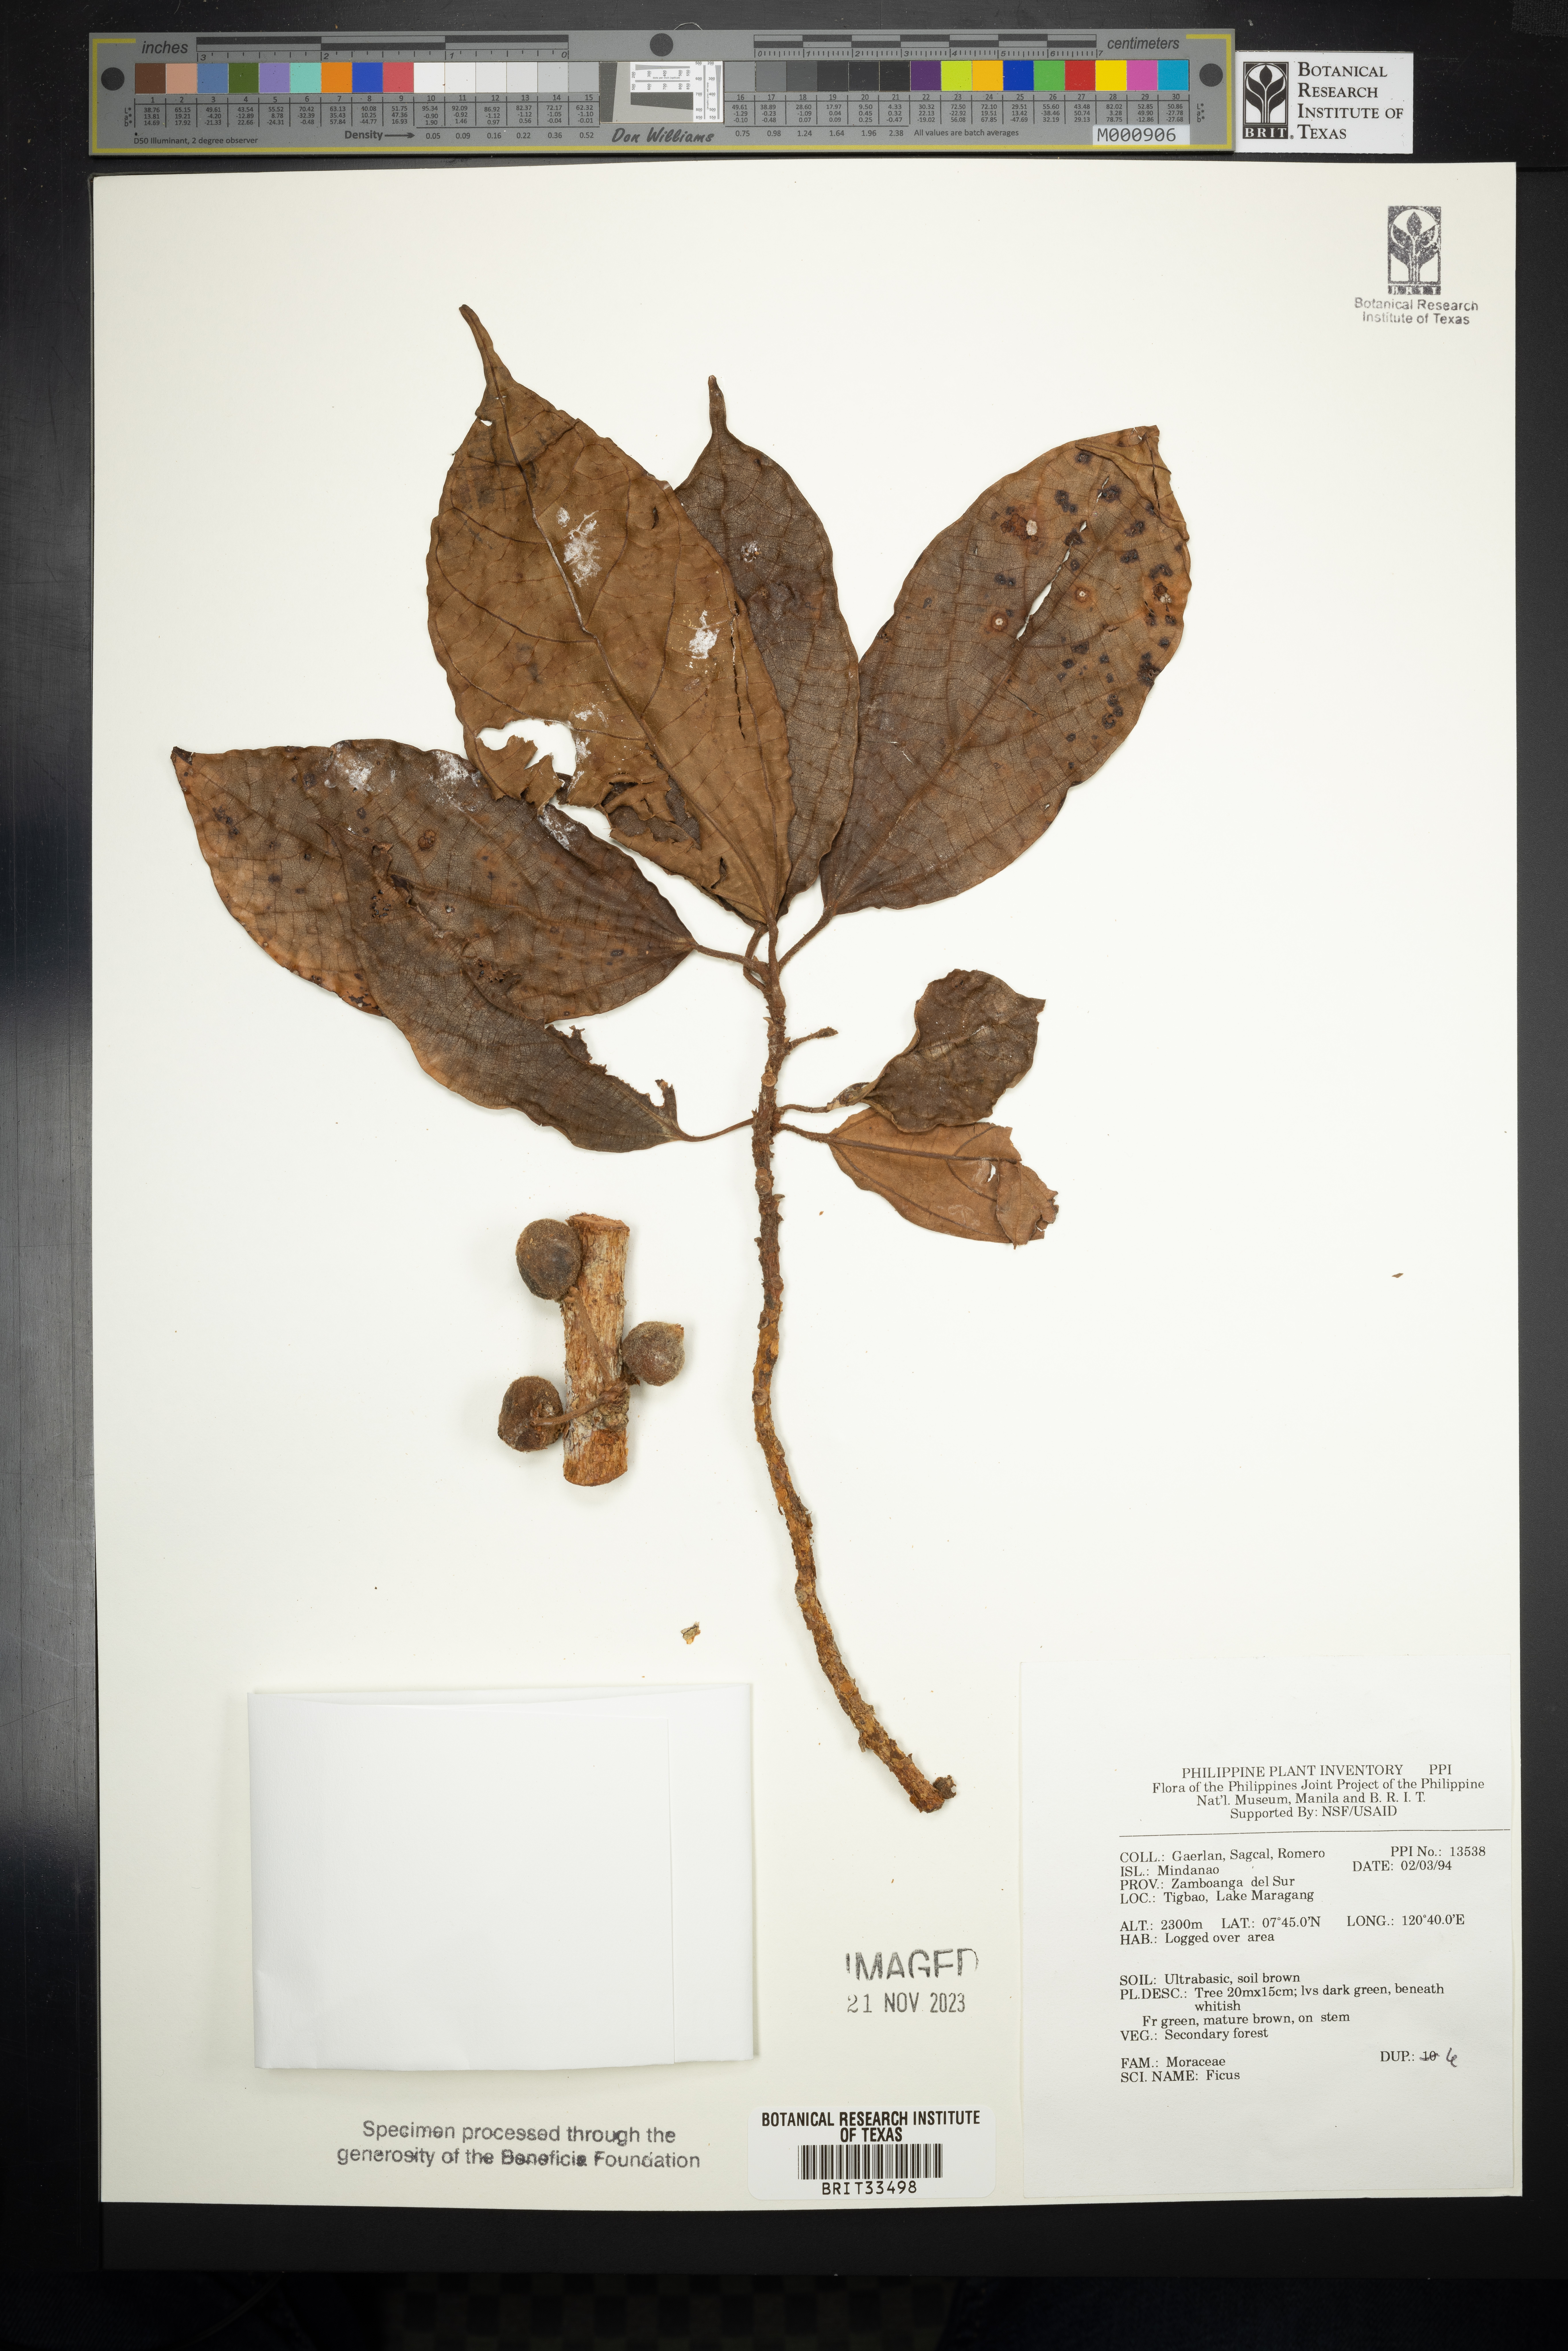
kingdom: Plantae
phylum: Tracheophyta
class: Magnoliopsida
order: Rosales
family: Moraceae
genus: Ficus
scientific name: Ficus
